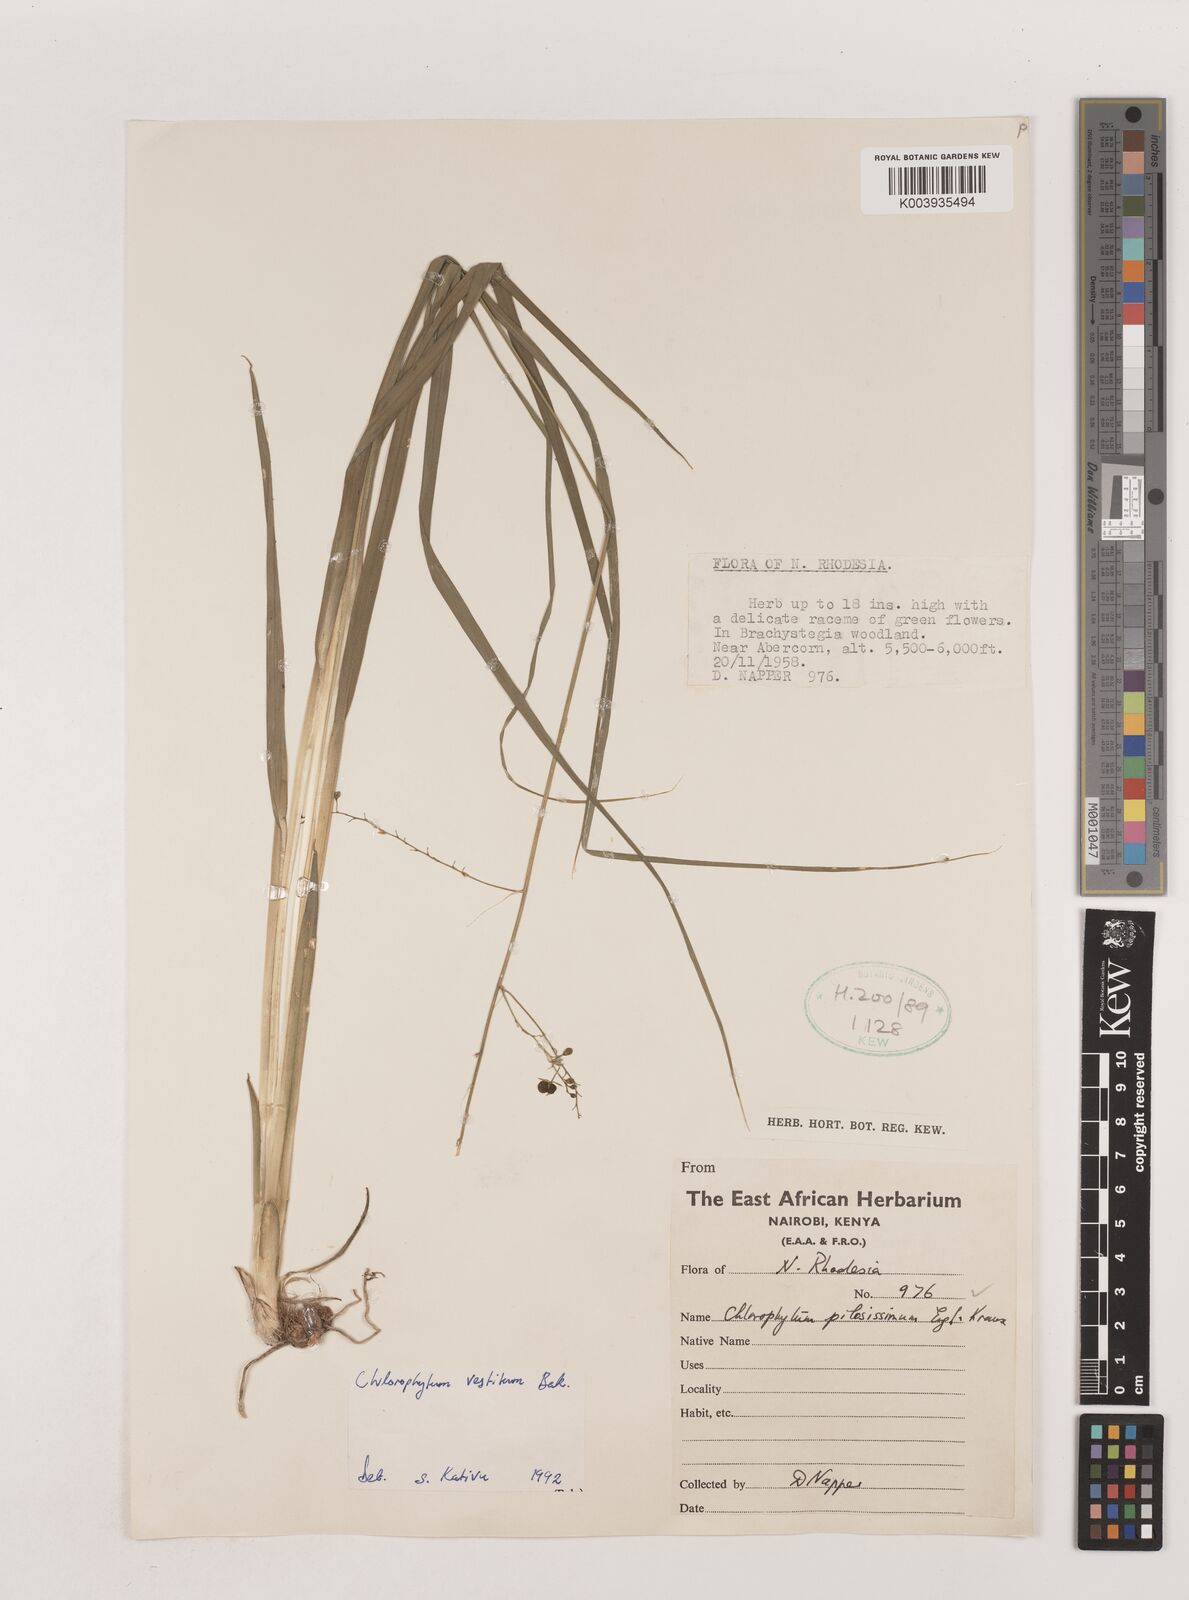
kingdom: Plantae
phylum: Tracheophyta
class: Liliopsida
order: Asparagales
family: Asparagaceae
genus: Chlorophytum
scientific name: Chlorophytum vestitum
